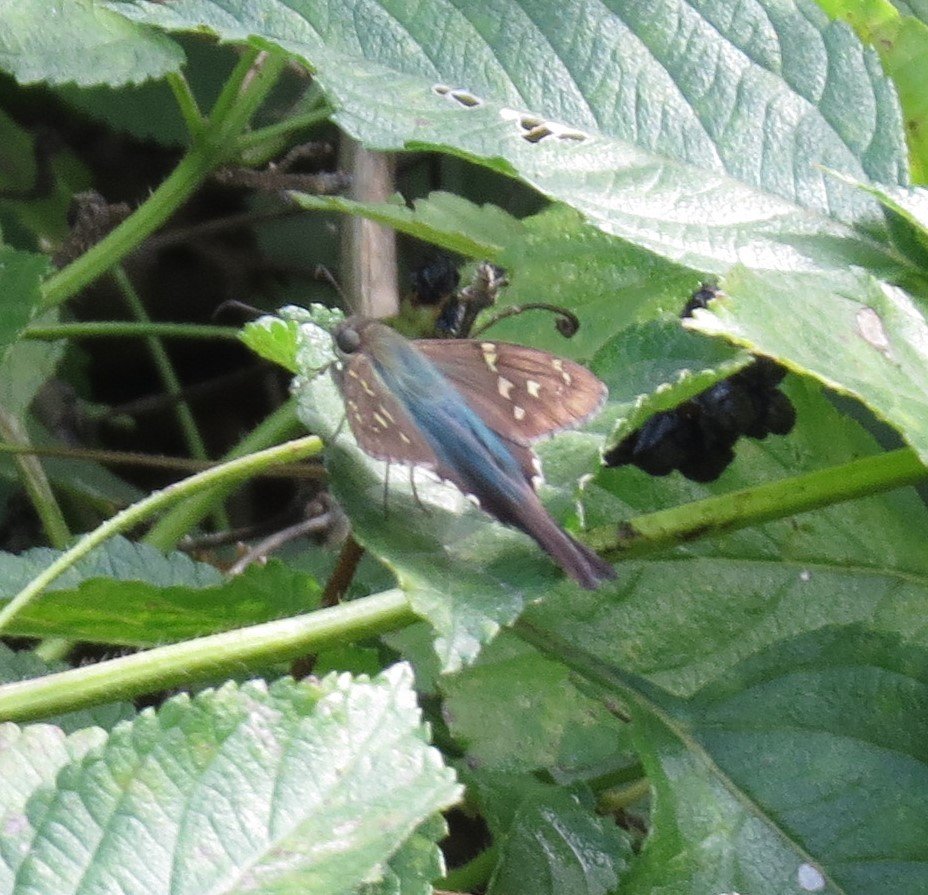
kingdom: Animalia
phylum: Arthropoda
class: Insecta
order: Lepidoptera
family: Hesperiidae
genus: Urbanus
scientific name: Urbanus proteus
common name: Long-tailed Skipper
